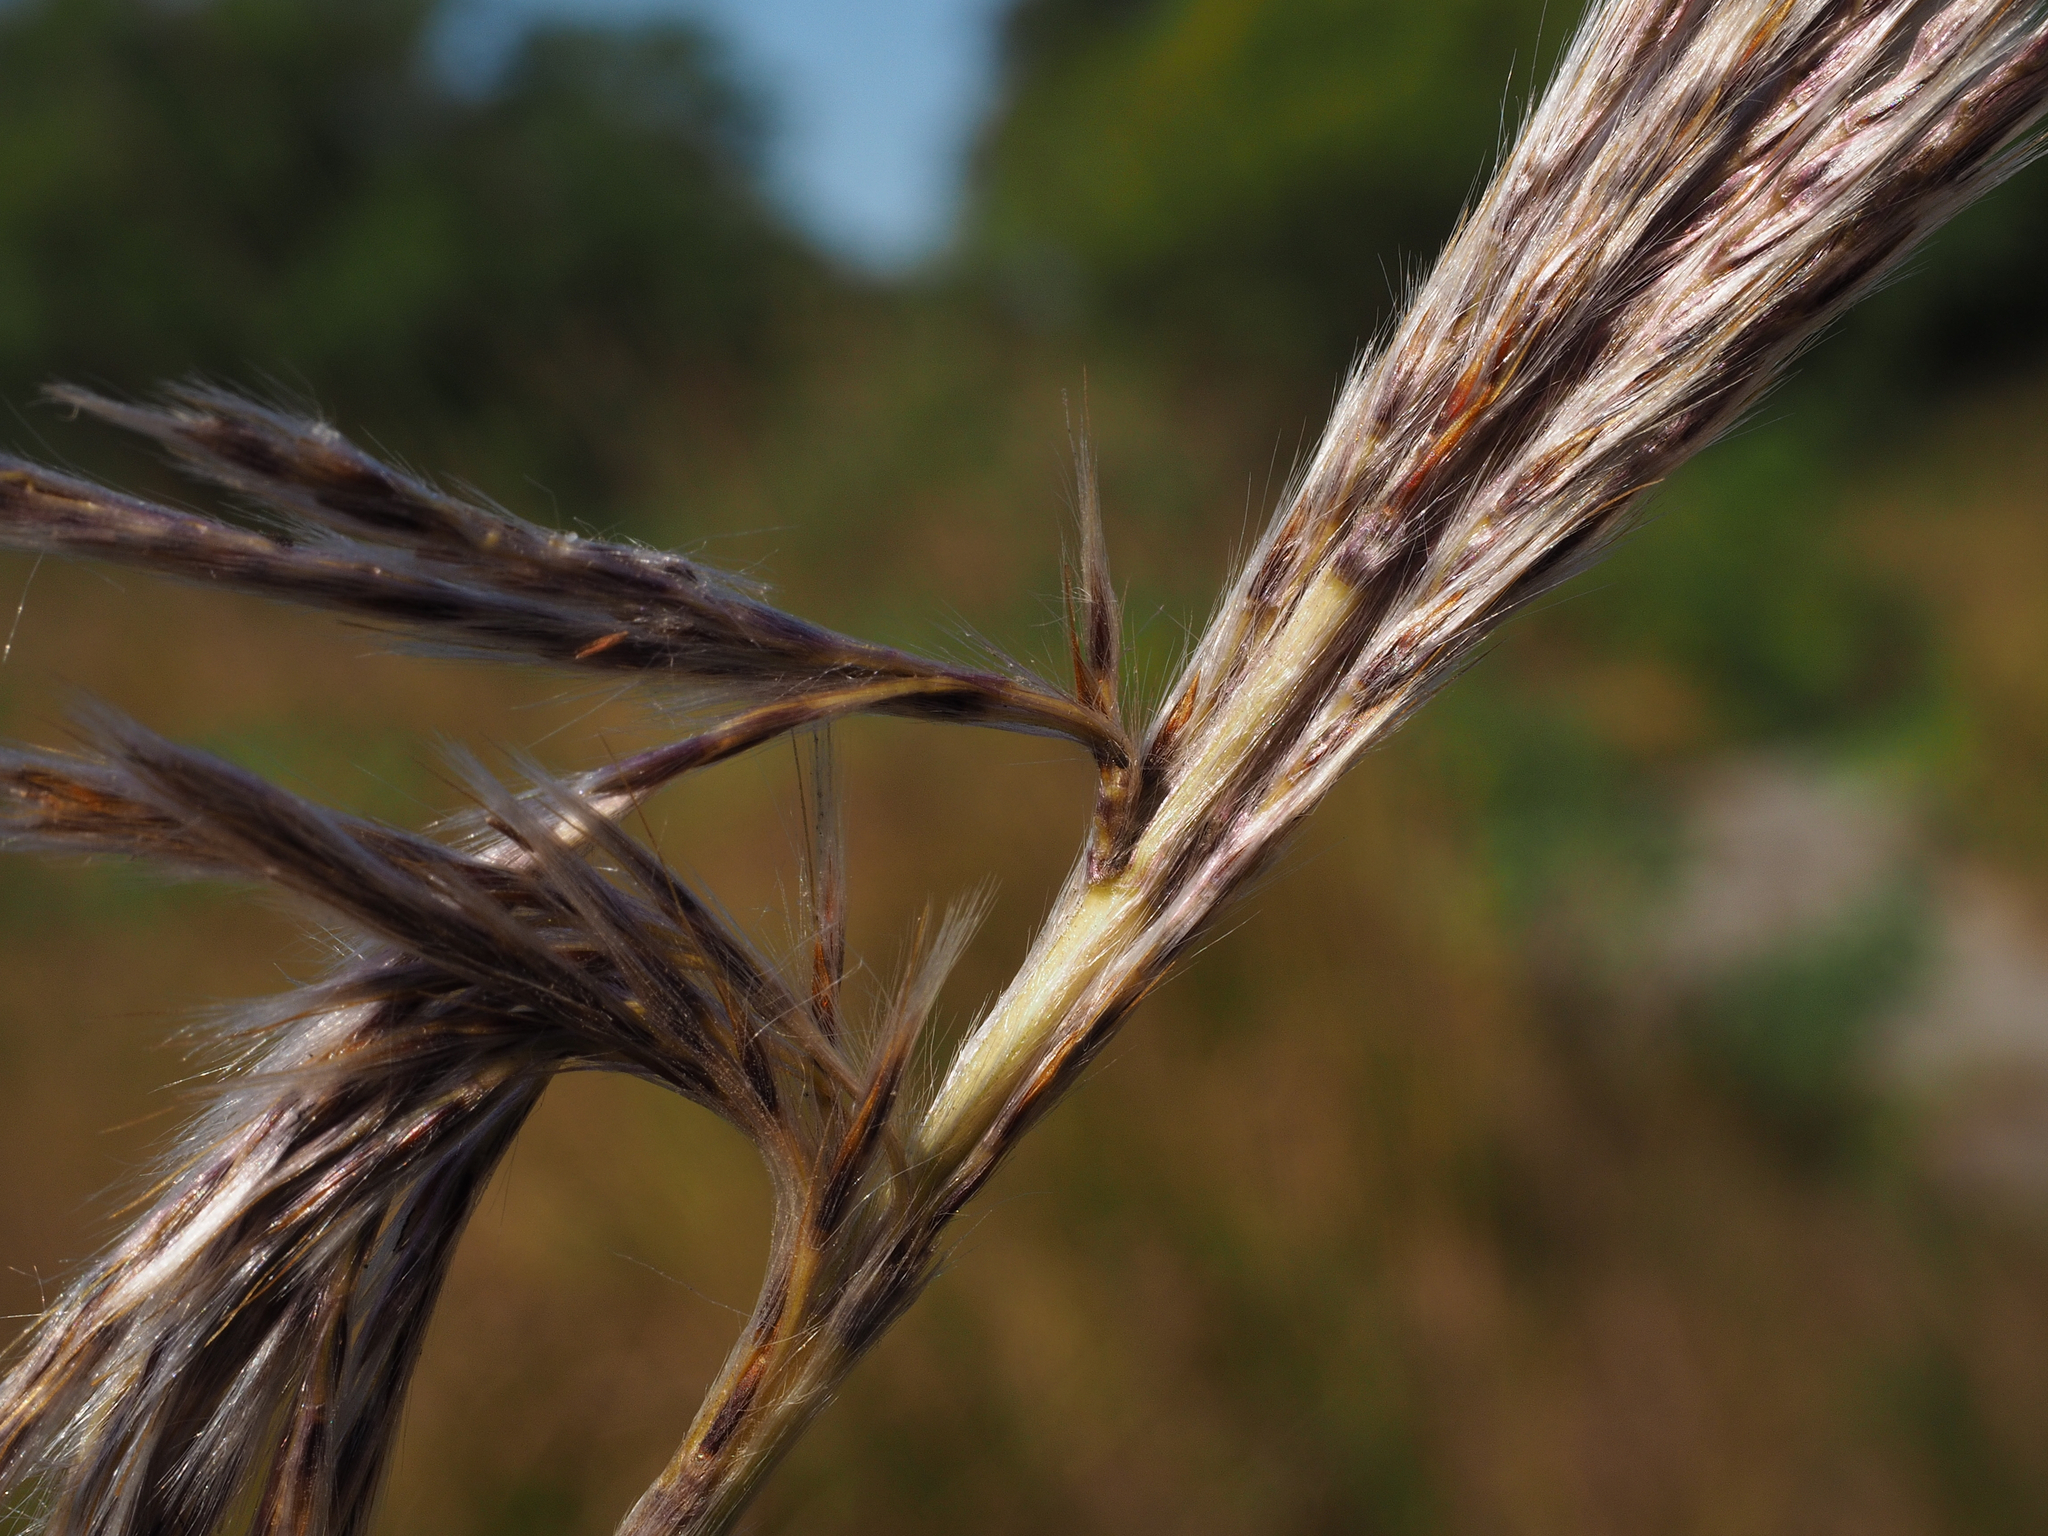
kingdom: Plantae
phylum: Tracheophyta
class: Liliopsida
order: Poales
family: Poaceae
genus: Saccharum
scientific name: Saccharum formosanum
